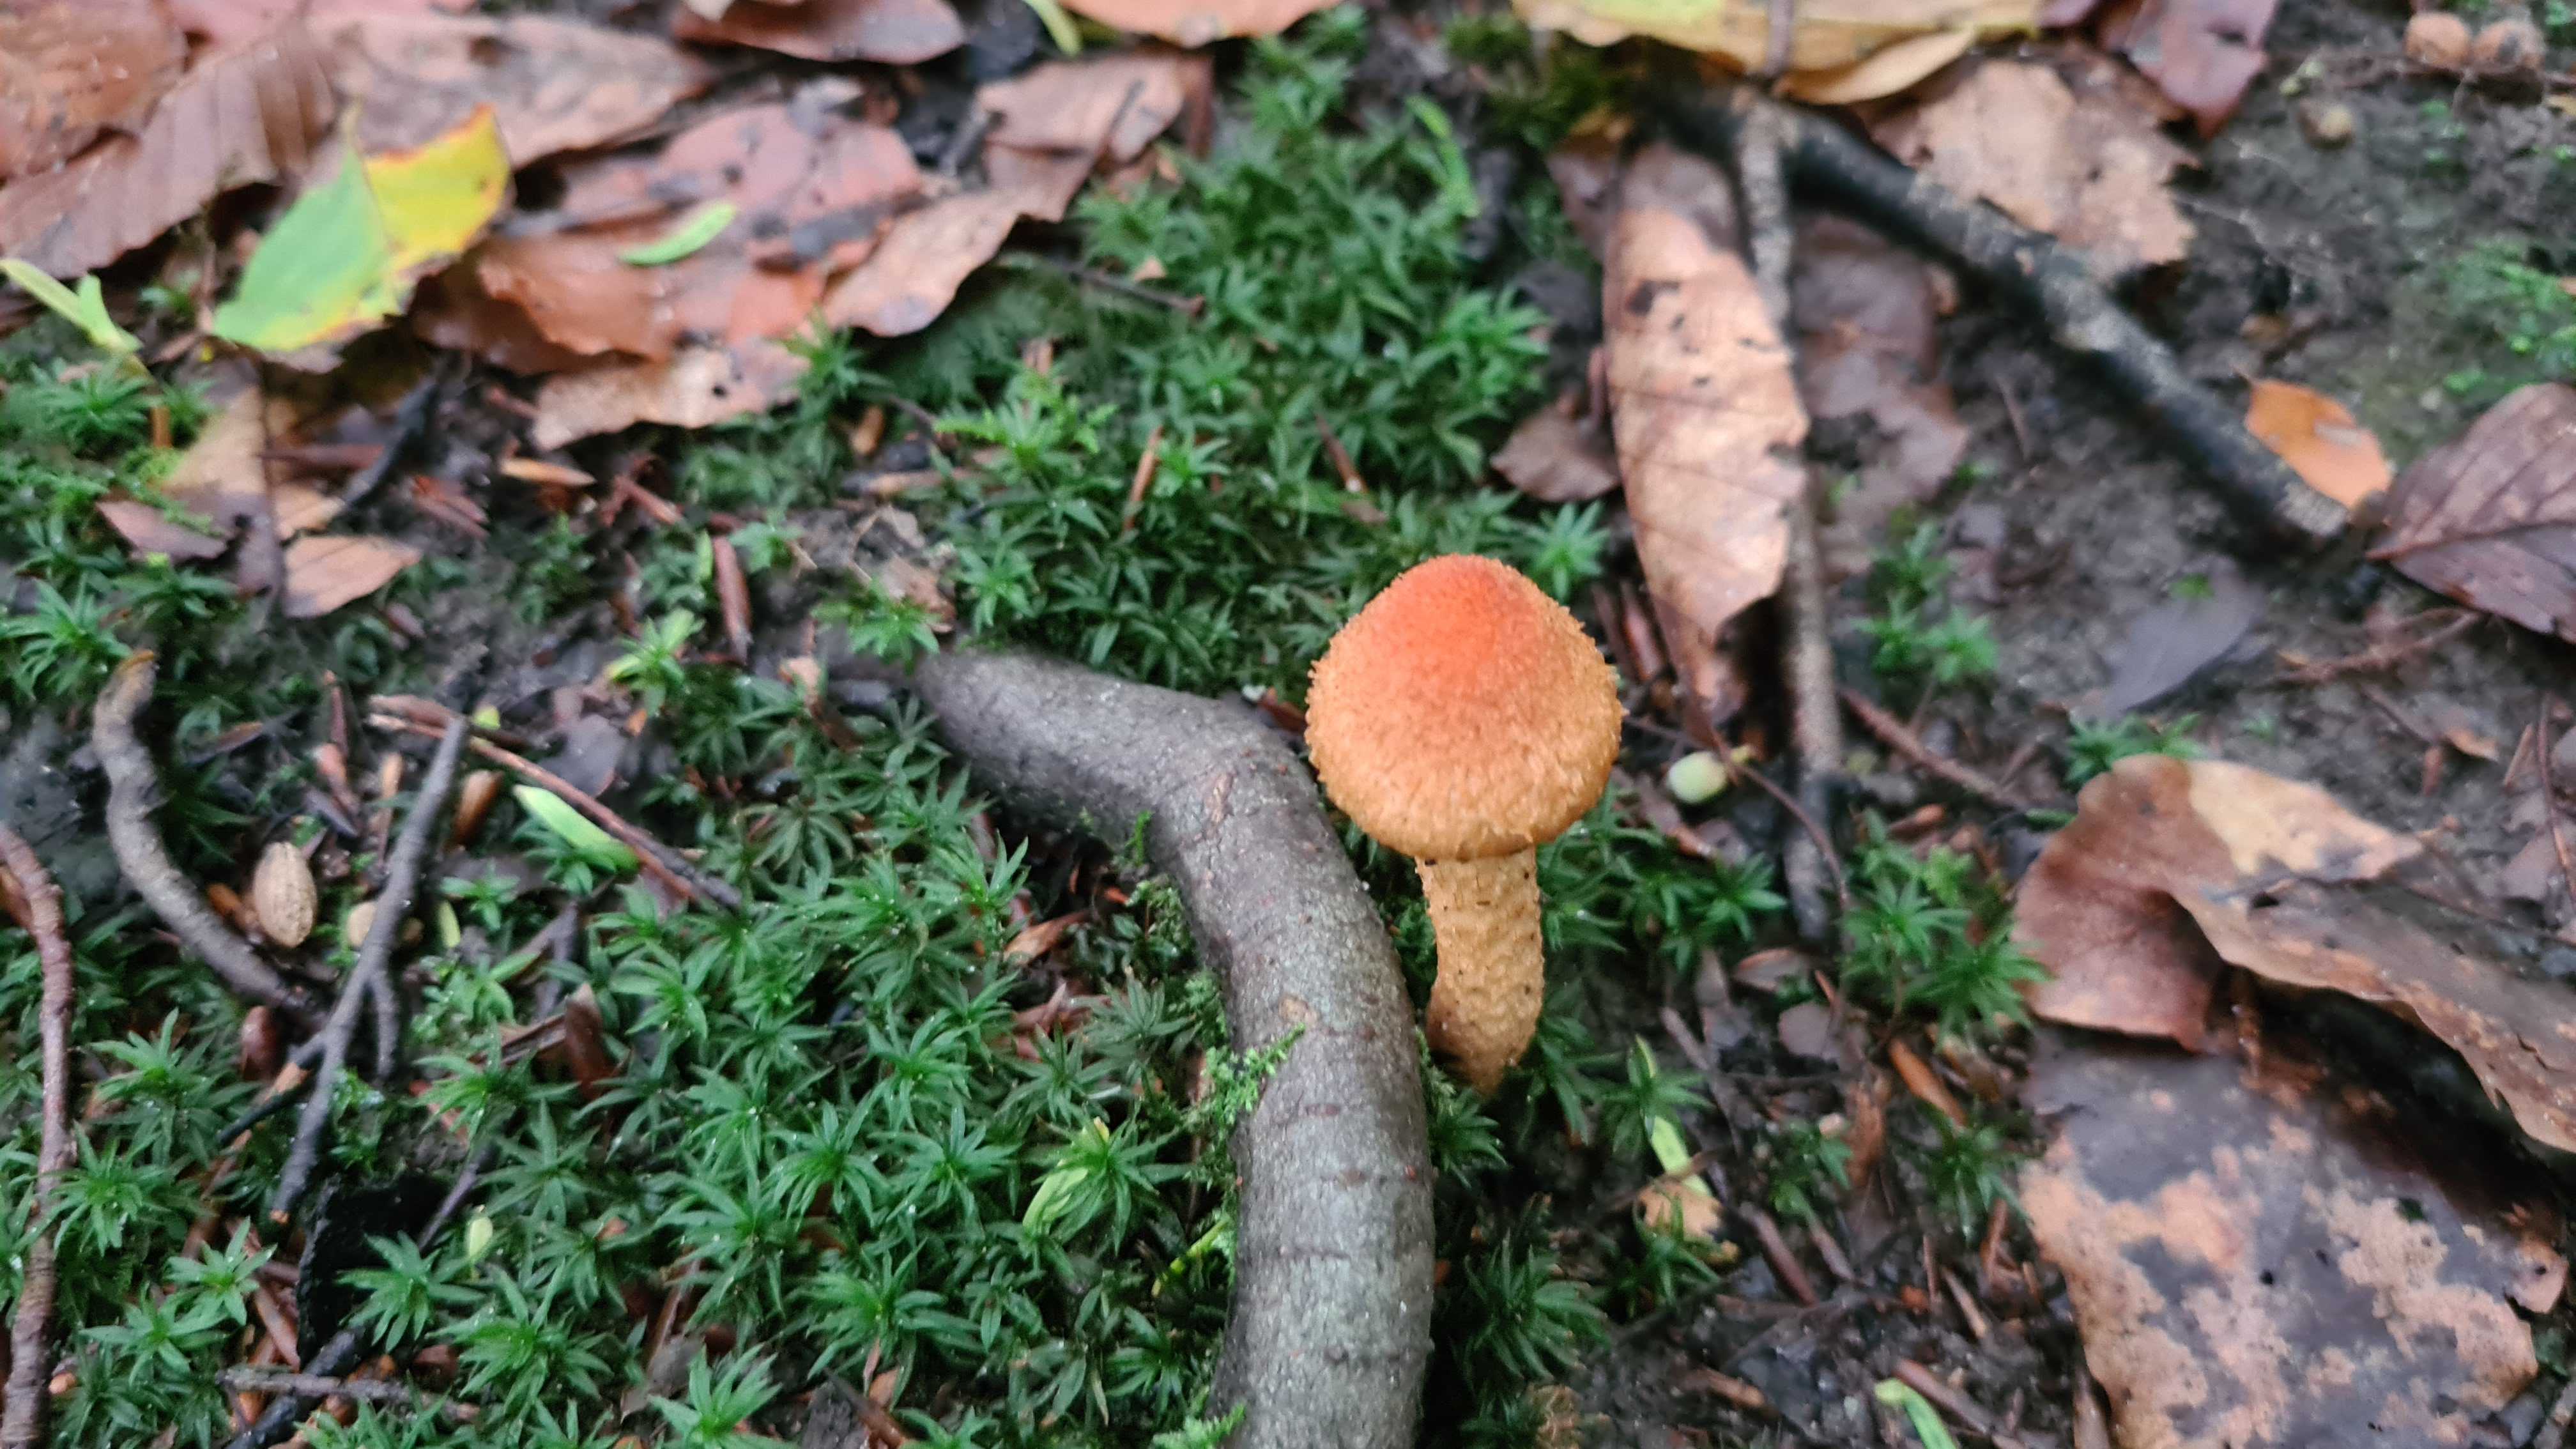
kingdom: Fungi
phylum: Basidiomycota
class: Agaricomycetes
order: Agaricales
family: Psathyrellaceae
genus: Lacrymaria
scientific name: Lacrymaria pyrotricha
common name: ildhåret mørkhat
